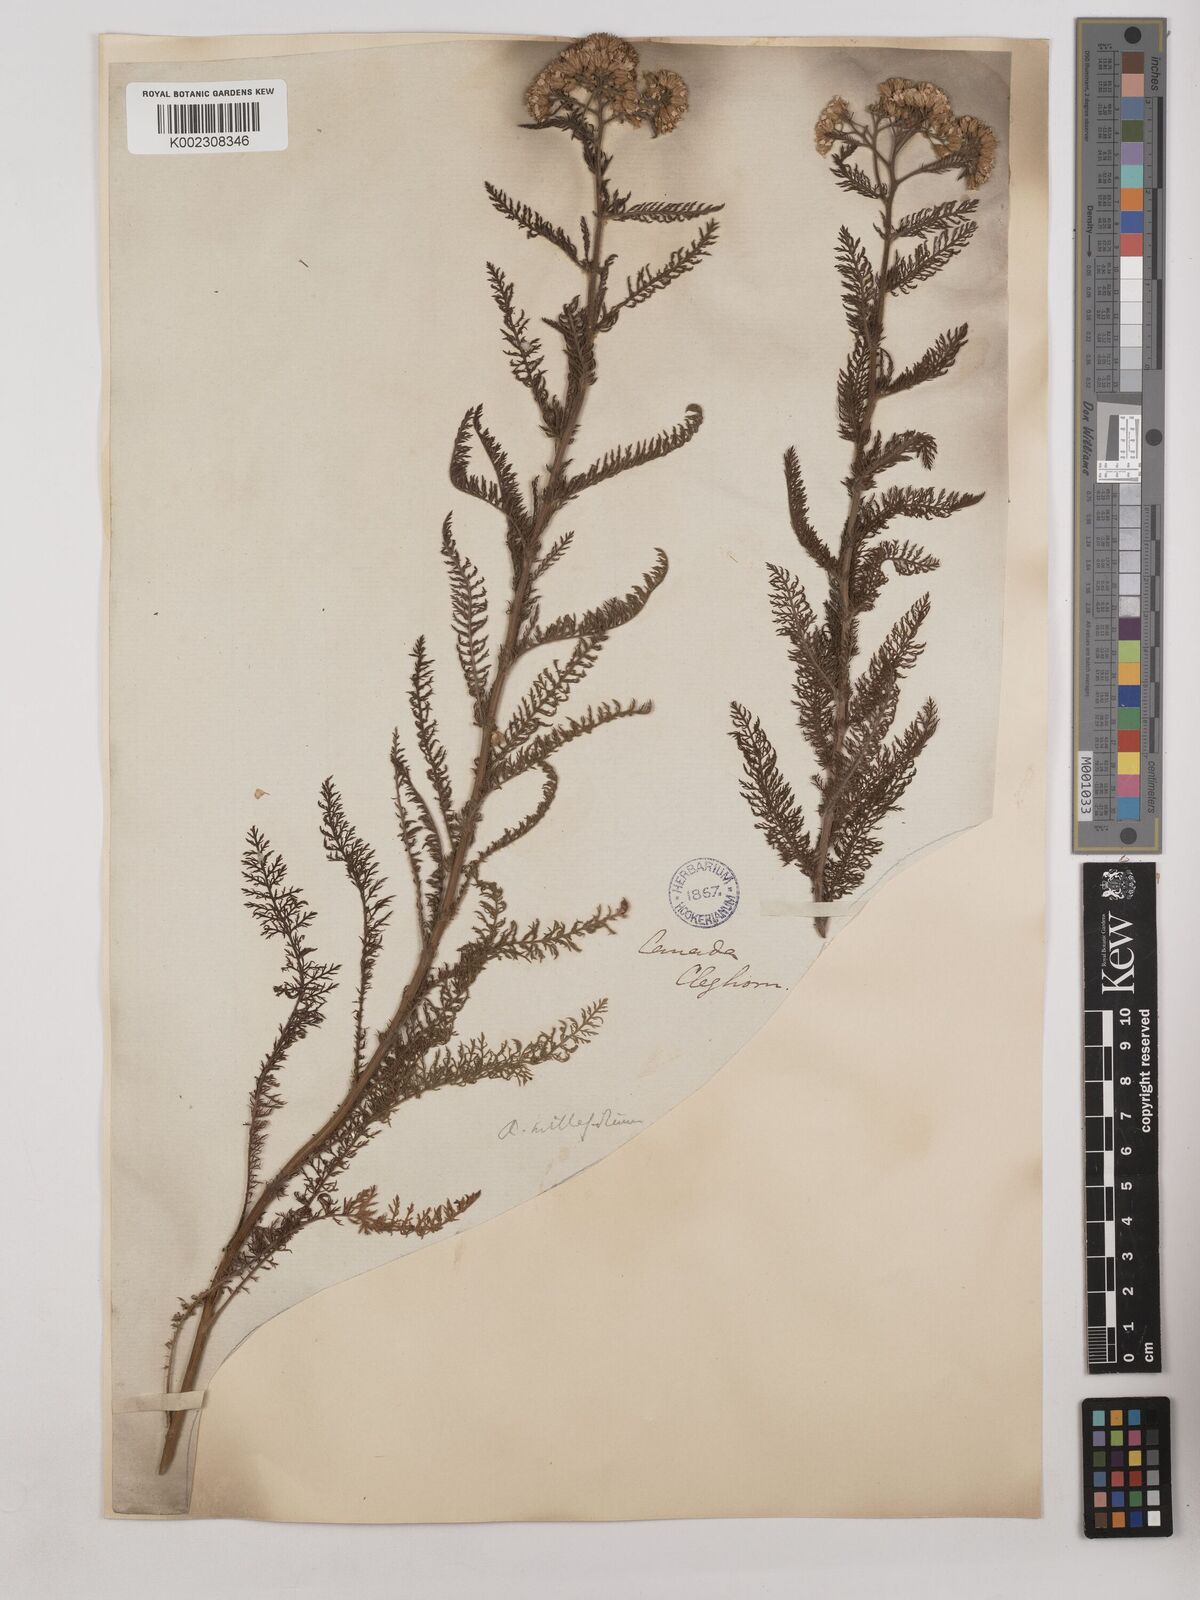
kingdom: Plantae
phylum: Tracheophyta
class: Magnoliopsida
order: Asterales
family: Asteraceae
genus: Achillea
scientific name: Achillea millefolium
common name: Yarrow
